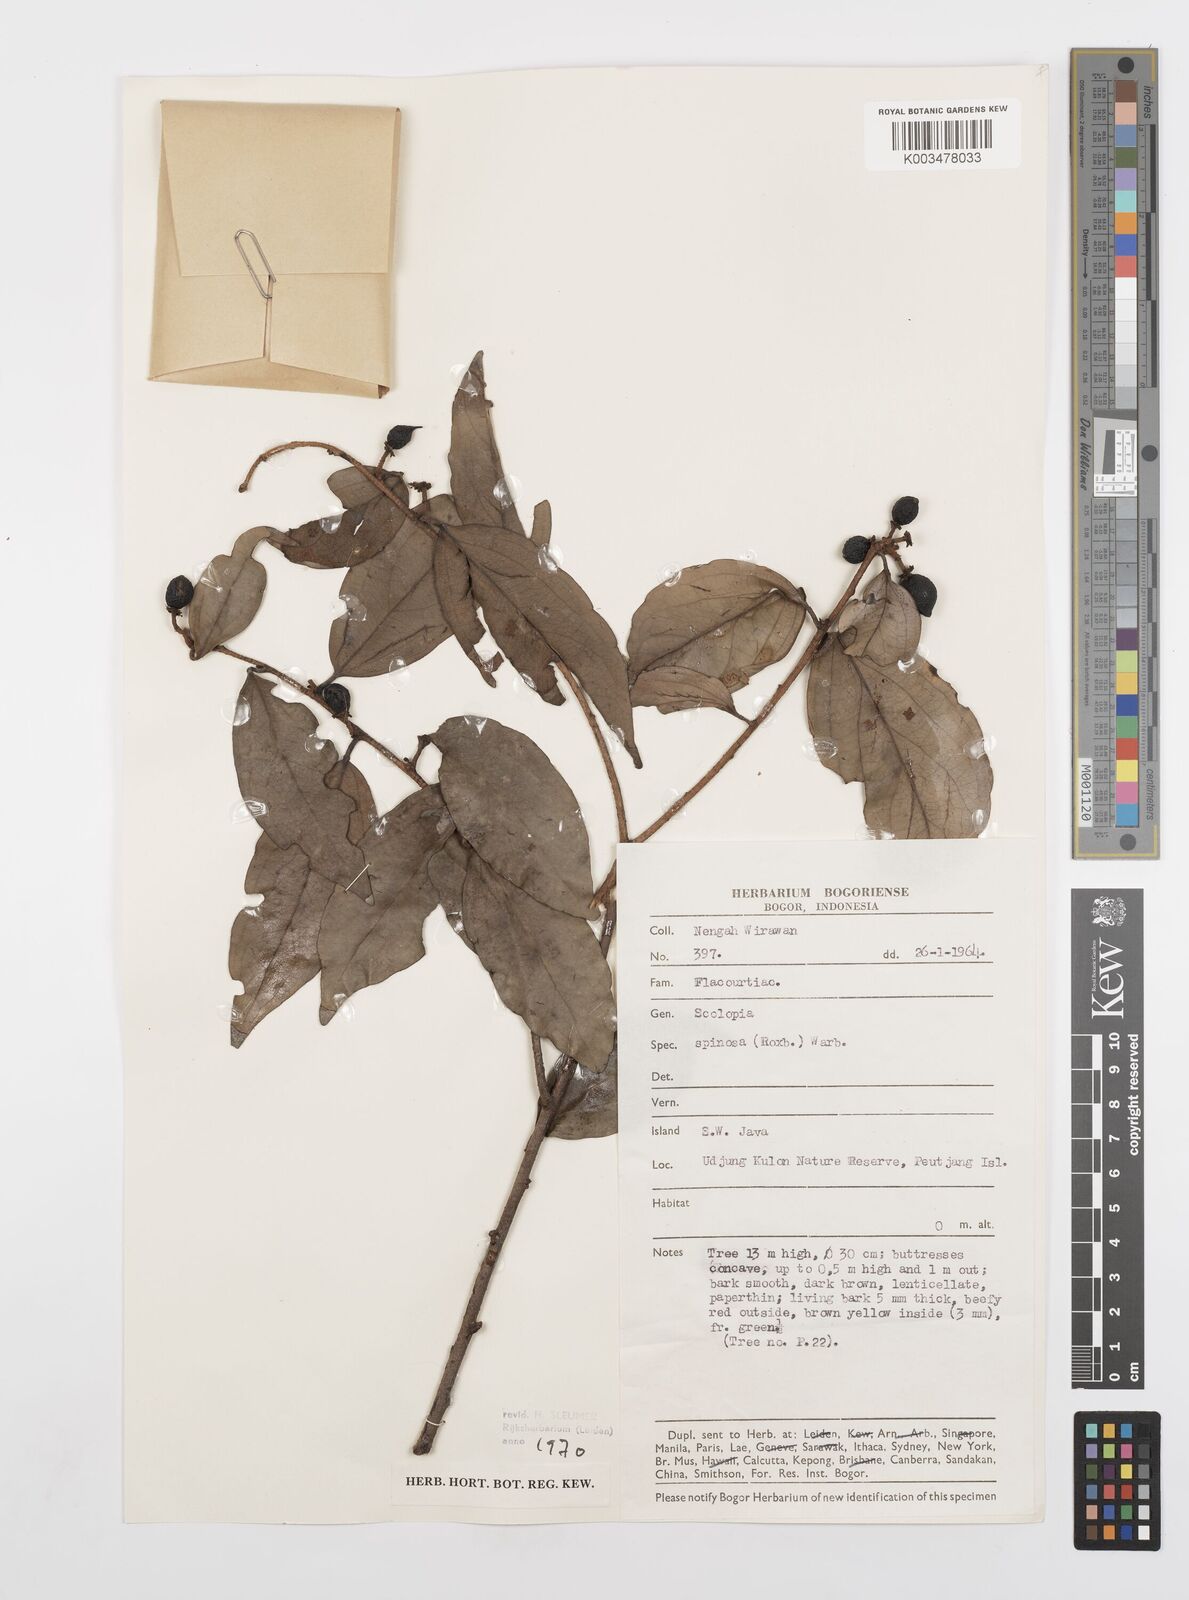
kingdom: Plantae
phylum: Tracheophyta
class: Magnoliopsida
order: Malpighiales
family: Salicaceae
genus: Scolopia
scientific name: Scolopia spinosa
